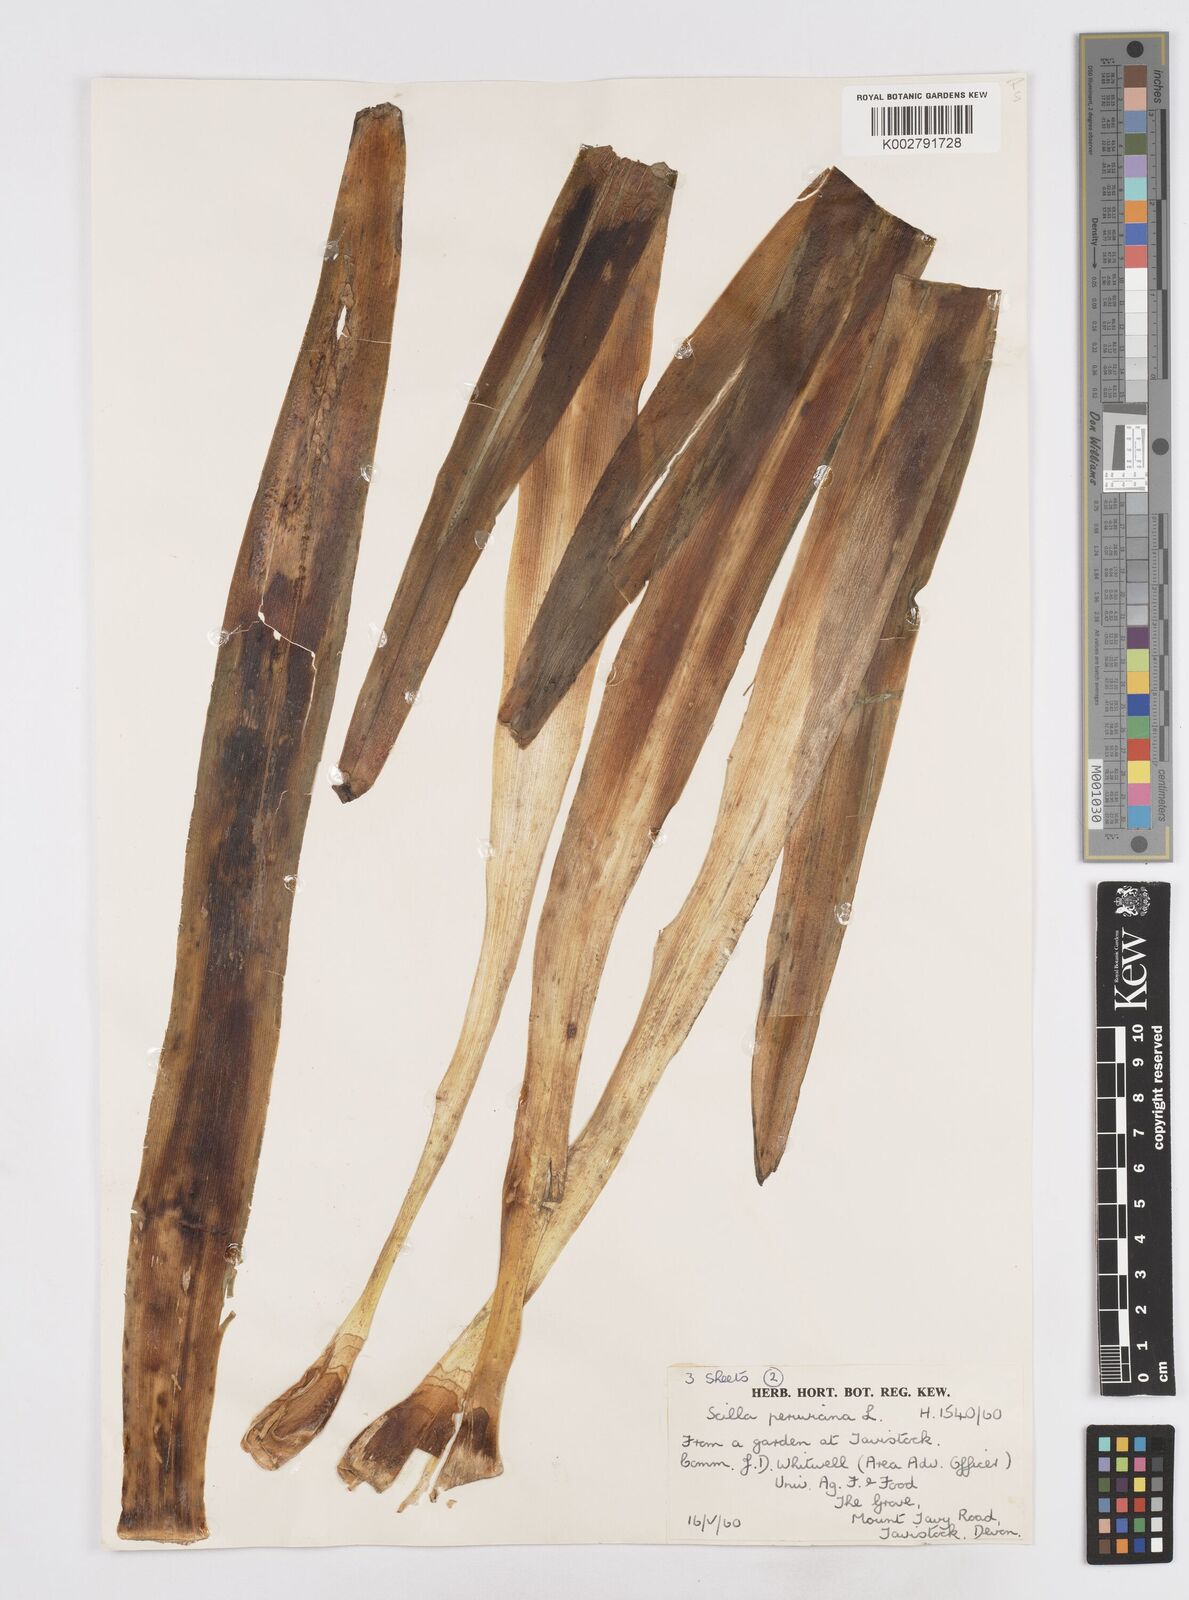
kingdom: Plantae
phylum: Tracheophyta
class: Liliopsida
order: Asparagales
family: Asparagaceae
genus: Scilla
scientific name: Scilla peruviana
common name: Portuguese squill
